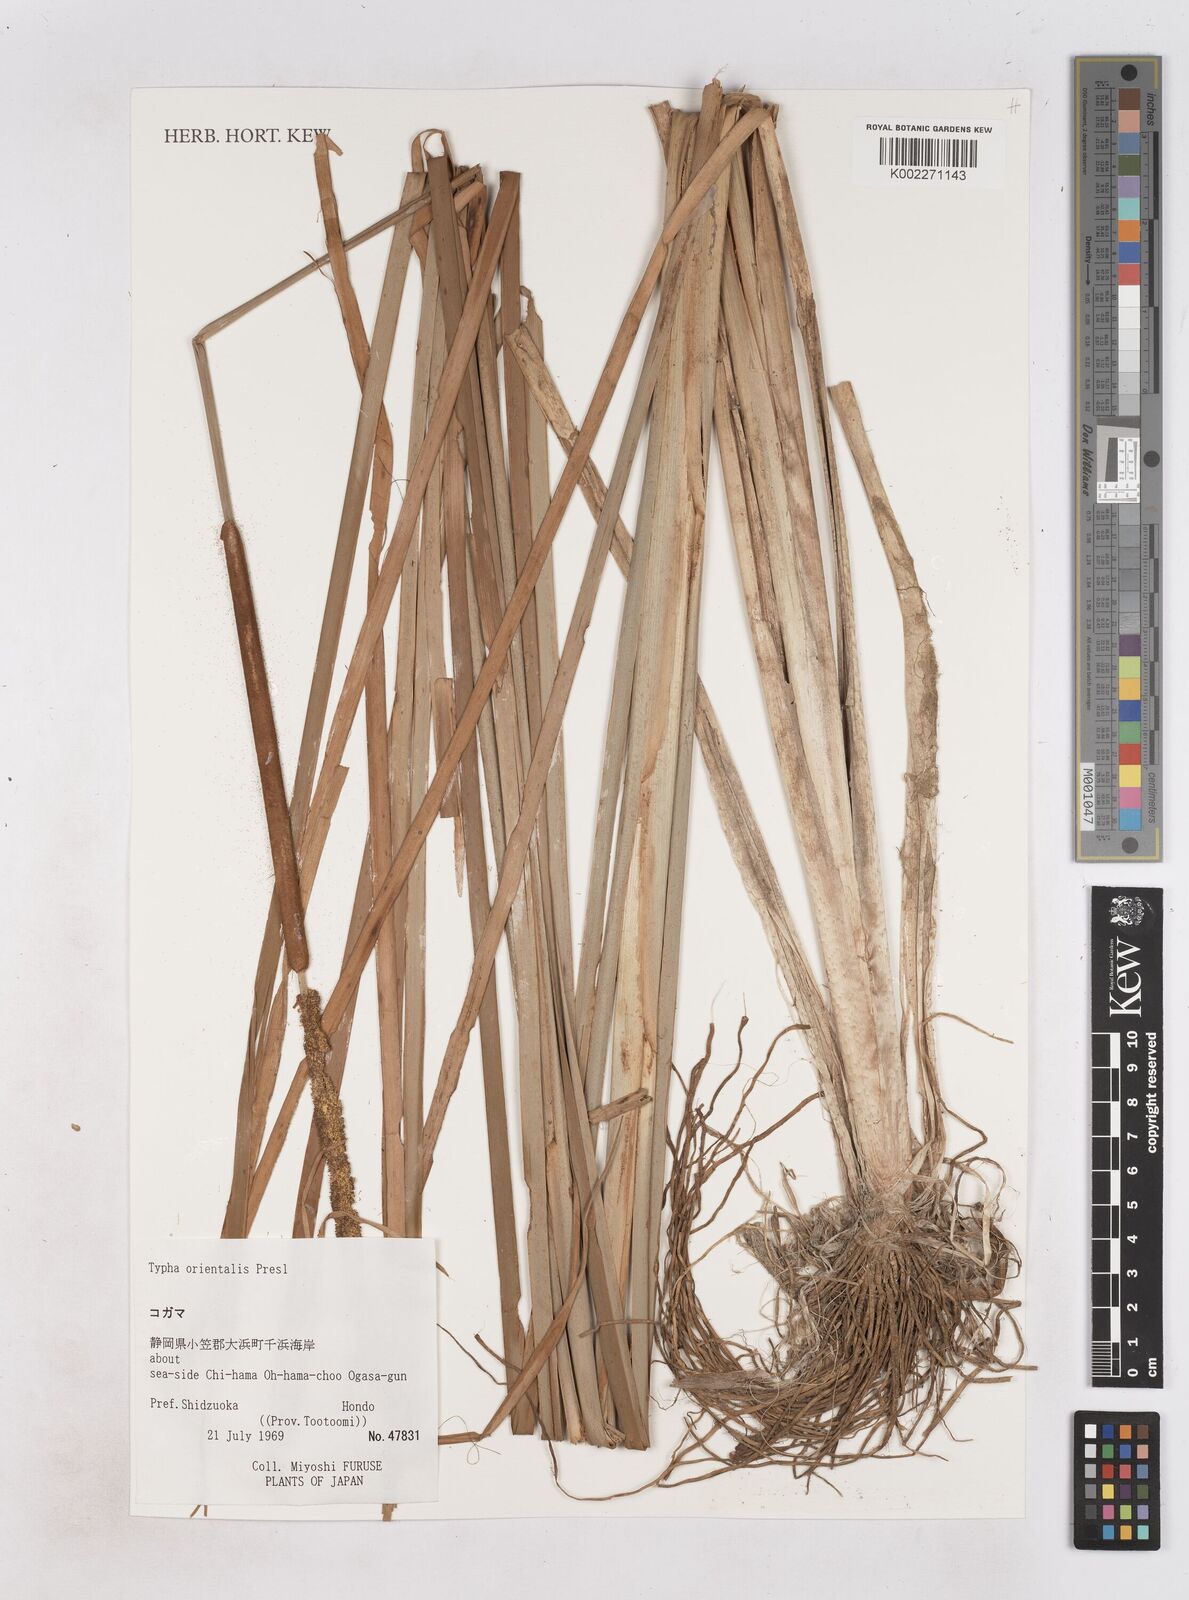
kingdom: Plantae
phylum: Tracheophyta
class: Liliopsida
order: Poales
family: Typhaceae
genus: Typha
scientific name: Typha
